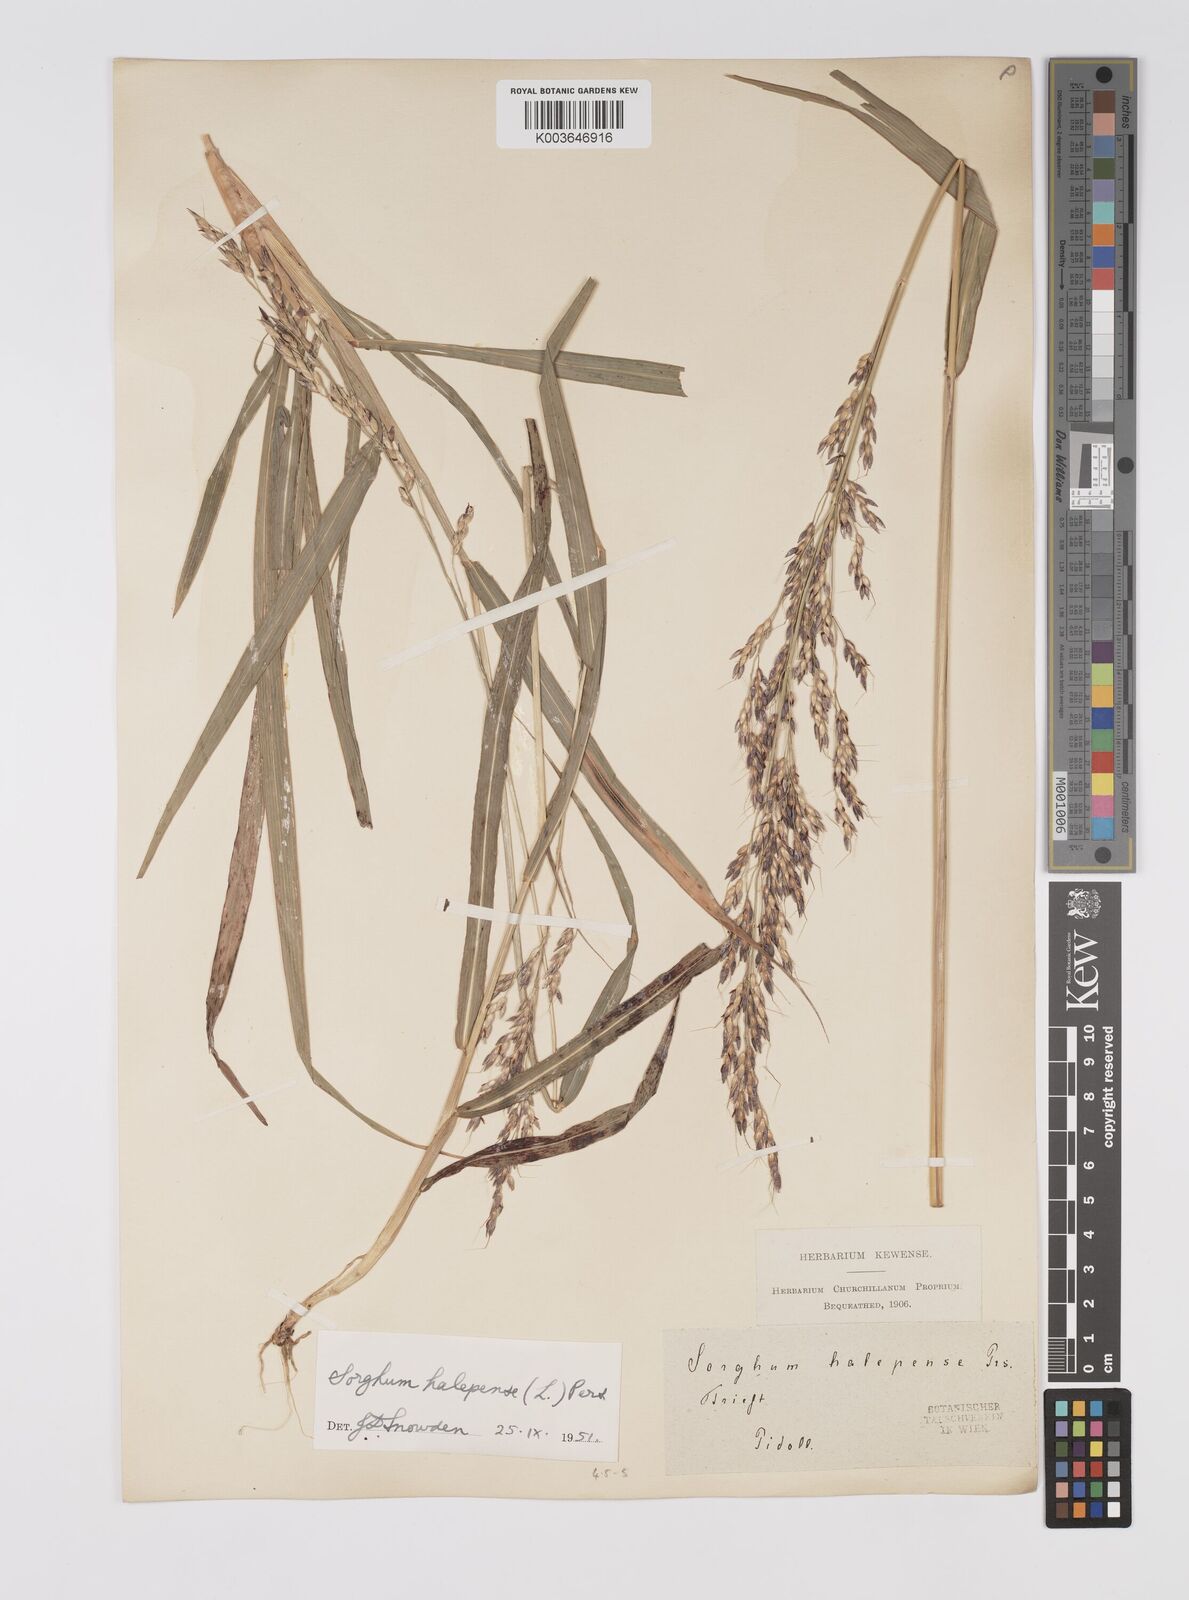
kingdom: Plantae
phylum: Tracheophyta
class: Liliopsida
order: Poales
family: Poaceae
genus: Sorghum
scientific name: Sorghum halepense
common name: Johnson-grass
